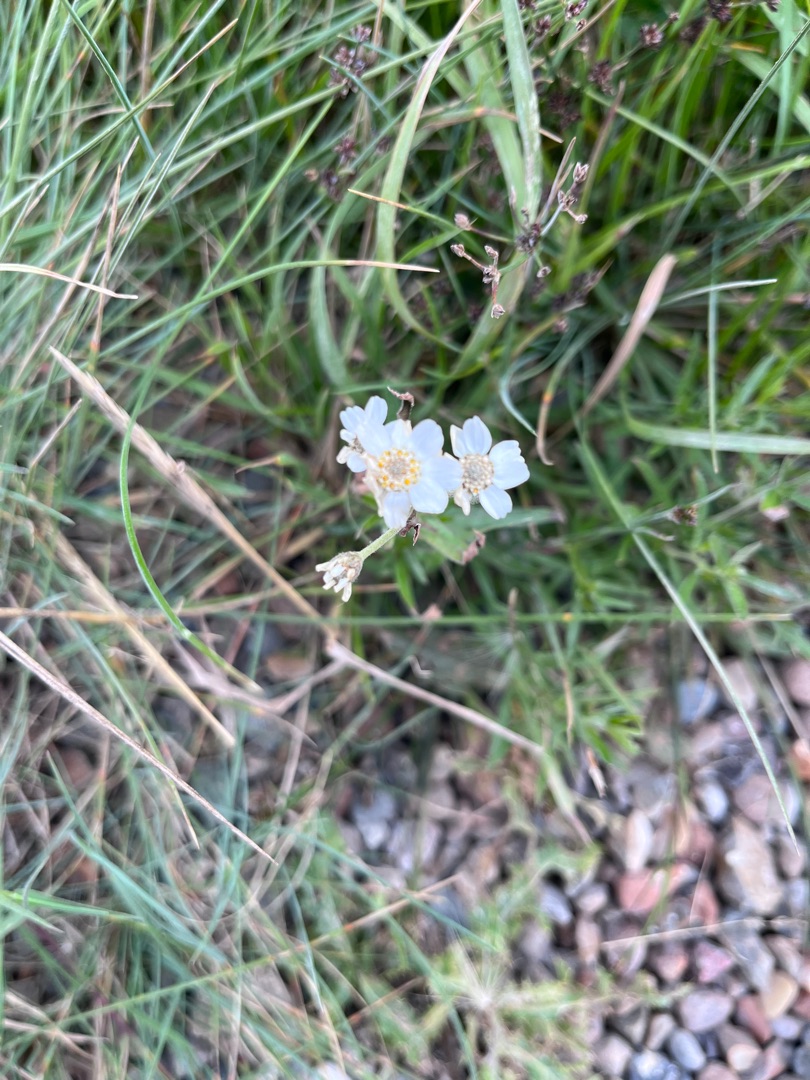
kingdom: Plantae
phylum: Tracheophyta
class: Magnoliopsida
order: Asterales
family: Asteraceae
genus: Achillea
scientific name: Achillea ptarmica
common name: Nyse-røllike
